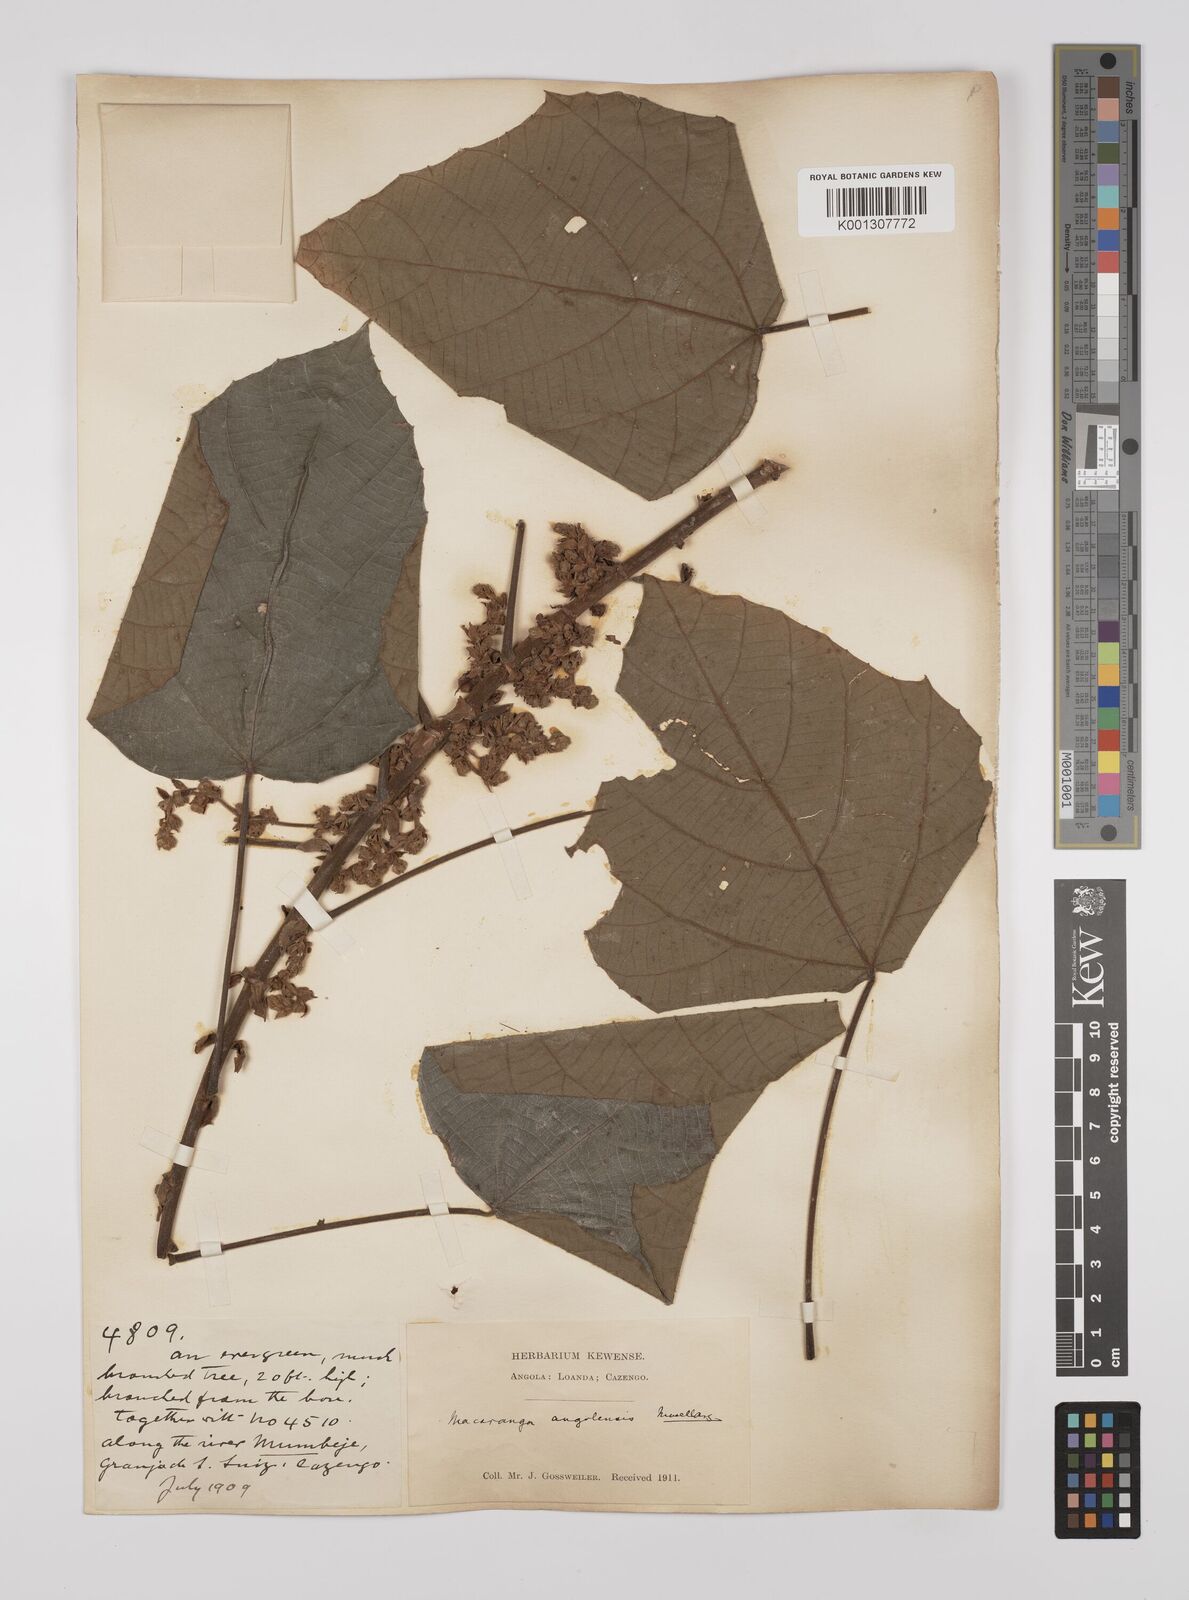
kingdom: Plantae
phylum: Tracheophyta
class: Magnoliopsida
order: Malpighiales
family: Euphorbiaceae
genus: Macaranga
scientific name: Macaranga
